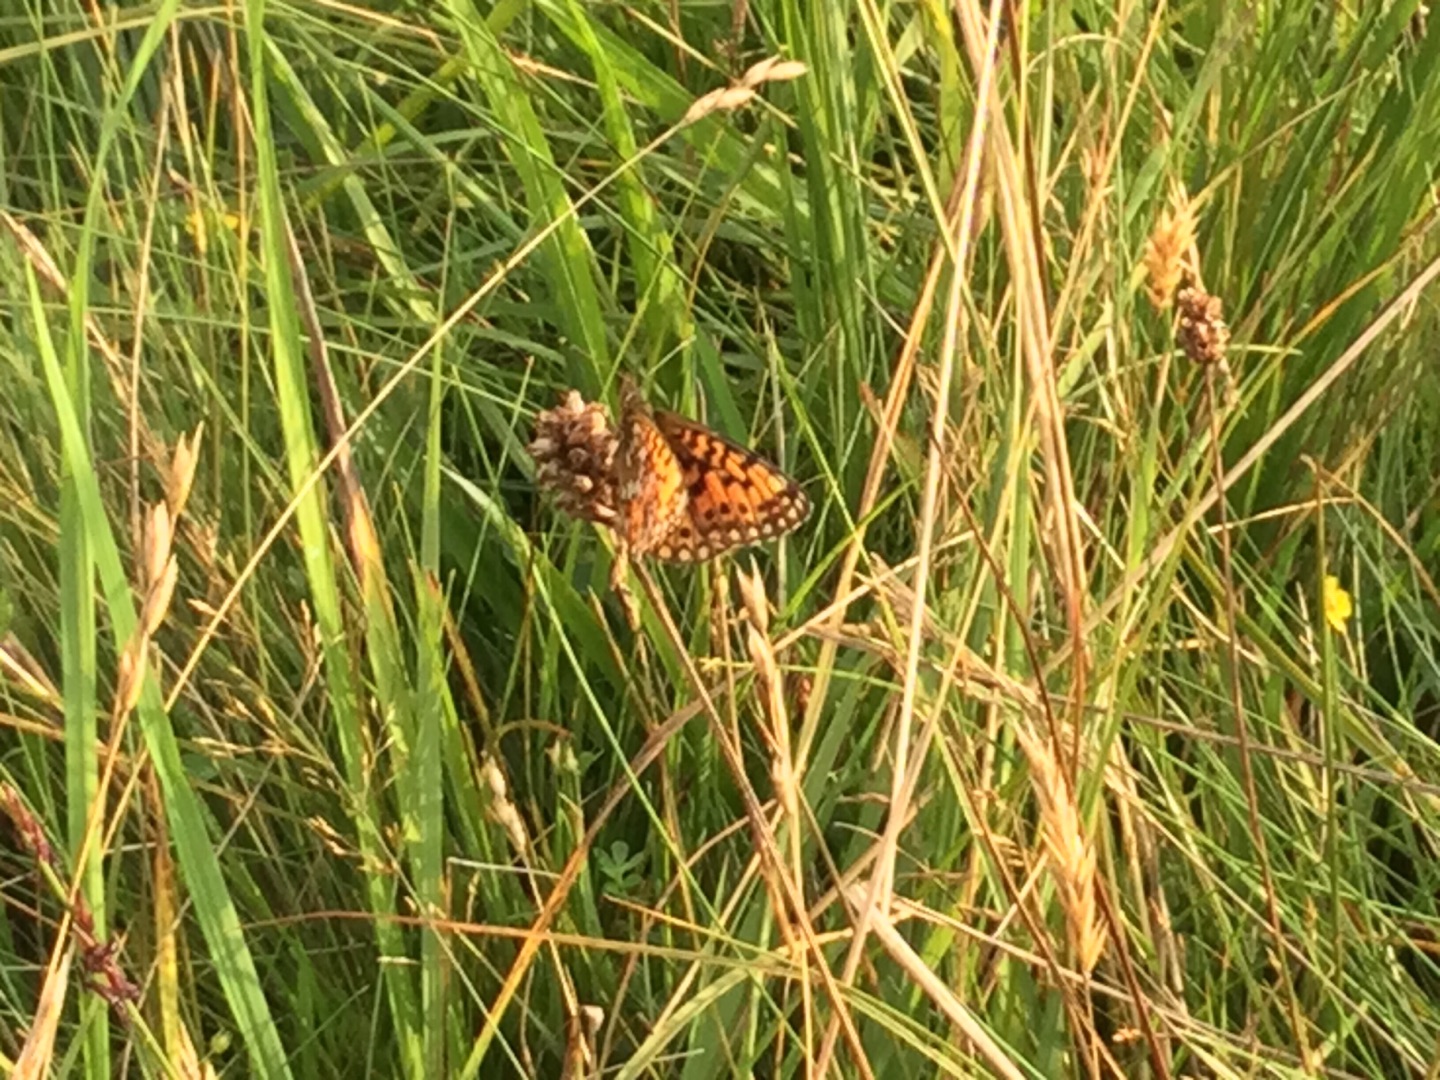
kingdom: Animalia
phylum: Arthropoda
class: Insecta
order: Lepidoptera
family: Nymphalidae
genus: Boloria
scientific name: Boloria selene
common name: Brunlig perlemorsommerfugl
